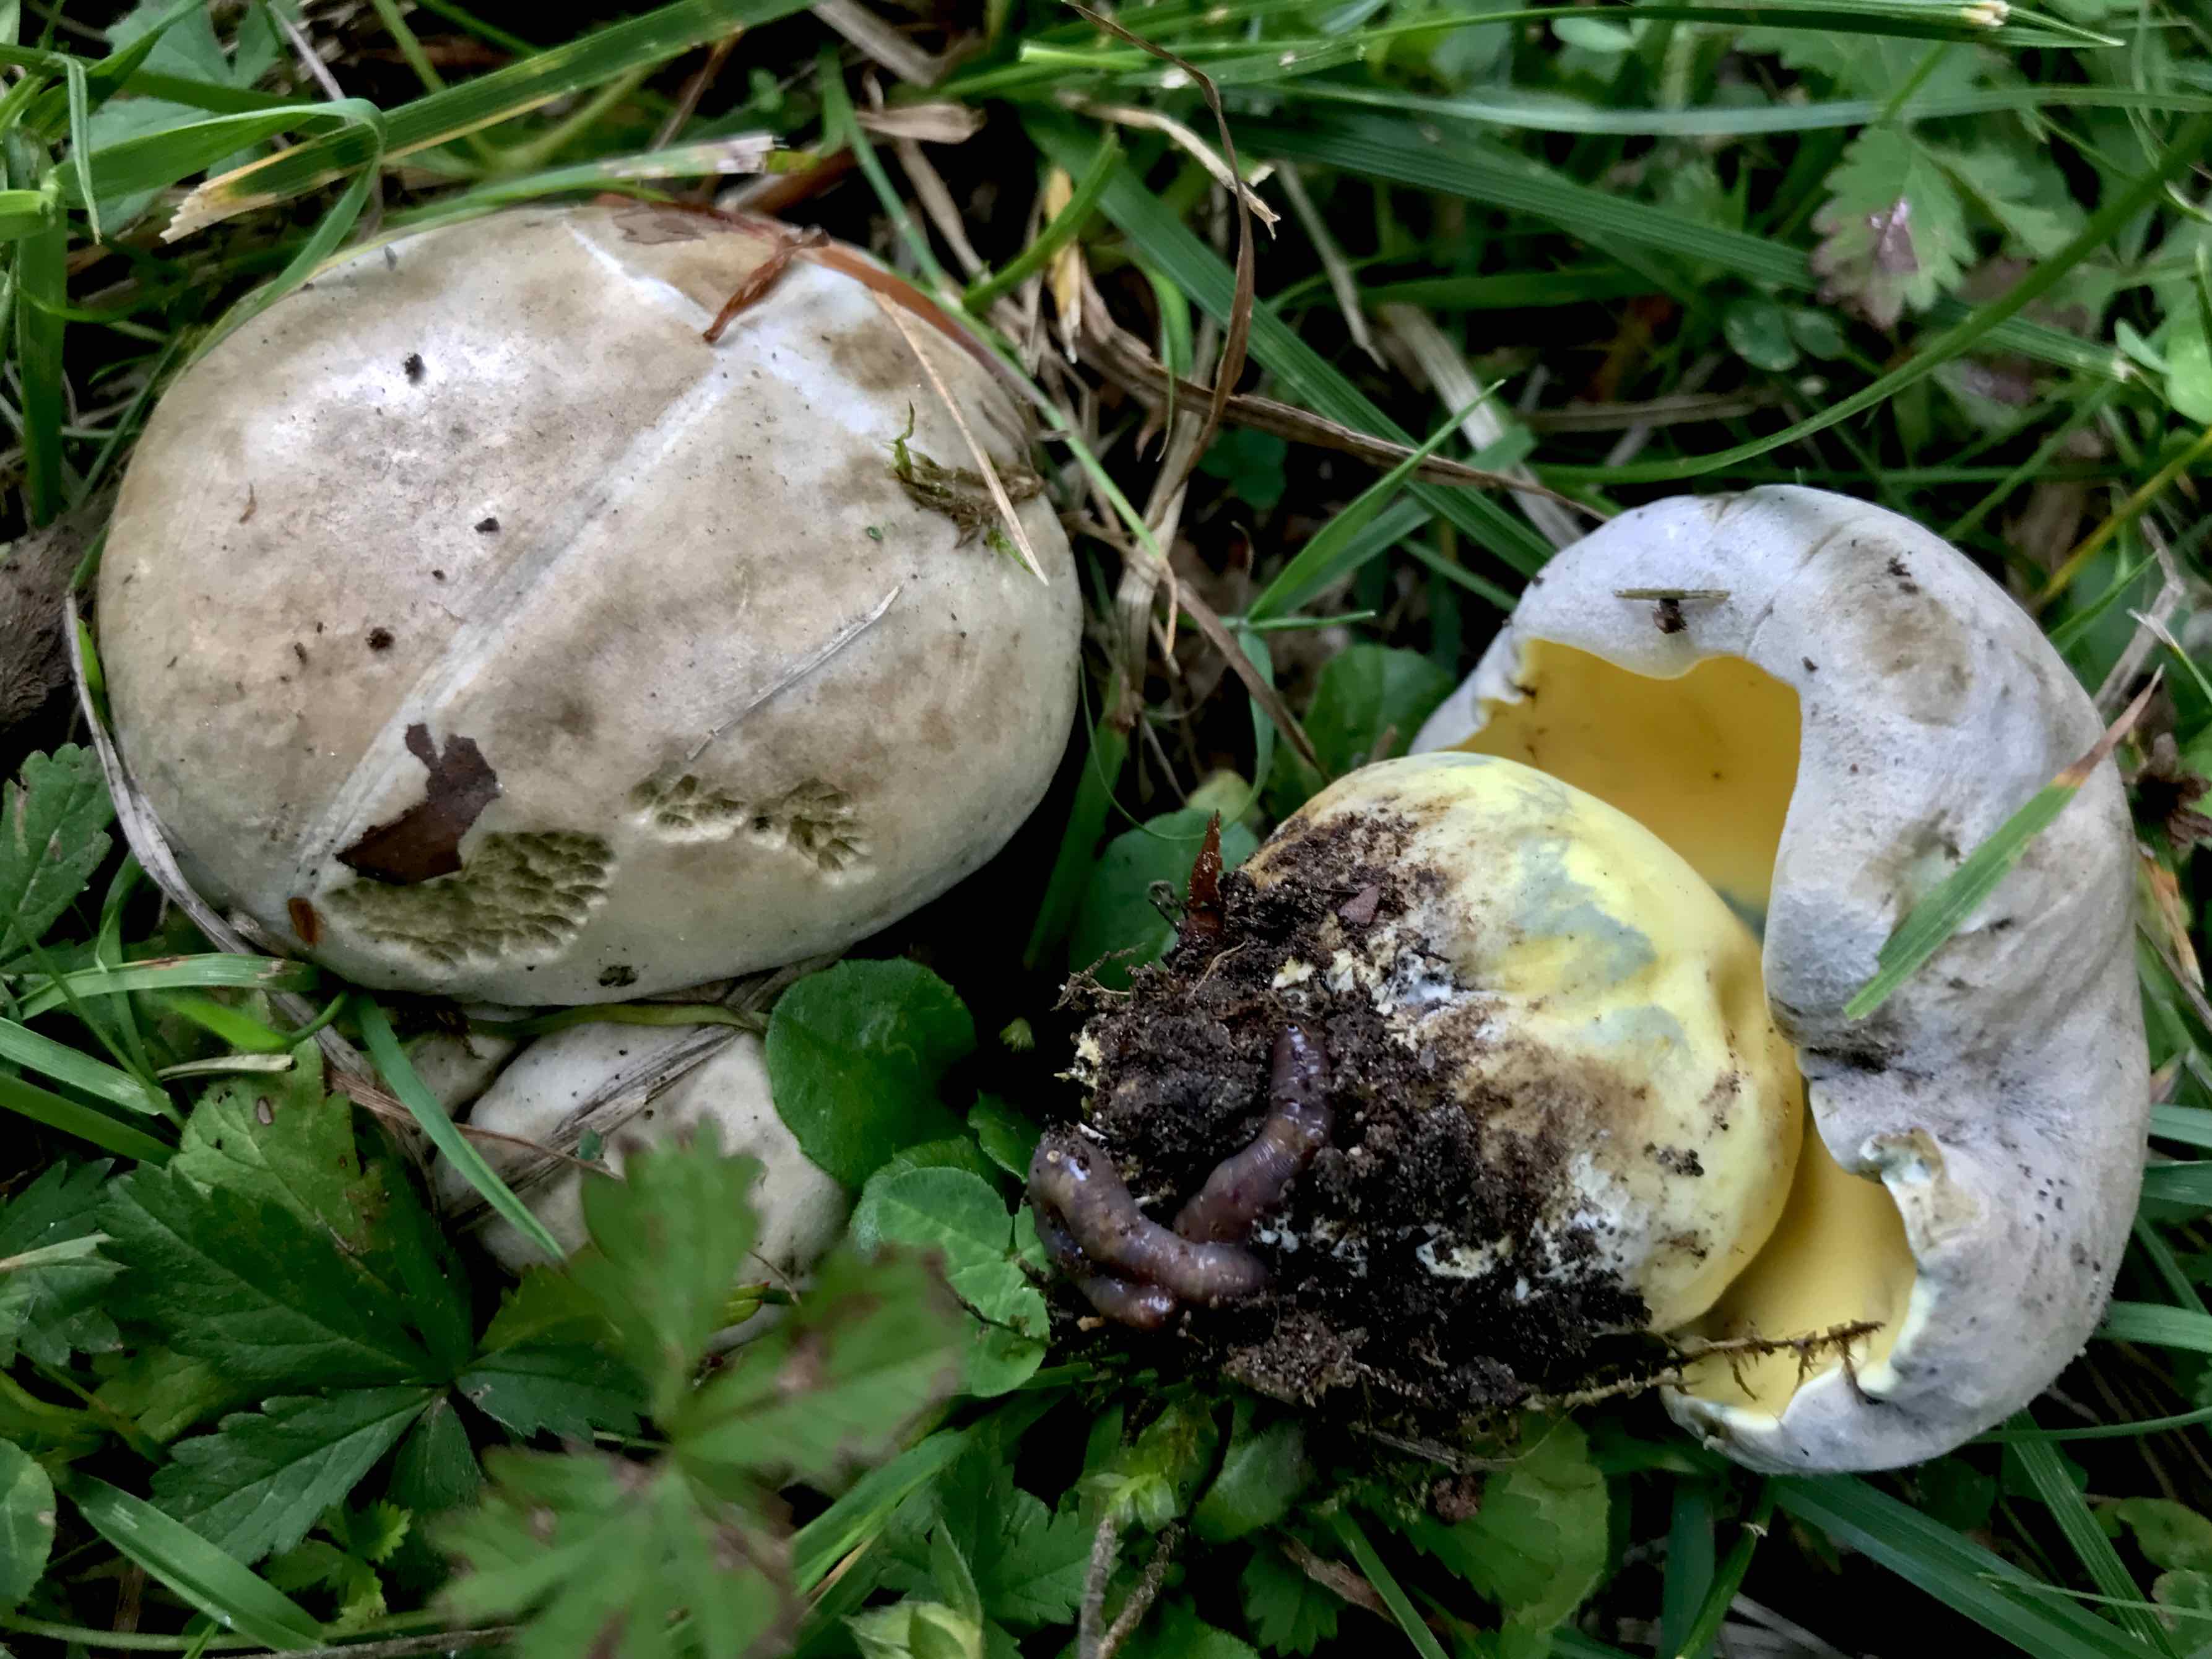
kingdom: Fungi
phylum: Basidiomycota
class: Agaricomycetes
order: Boletales
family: Boletaceae
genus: Caloboletus
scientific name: Caloboletus radicans
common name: rod-rørhat
